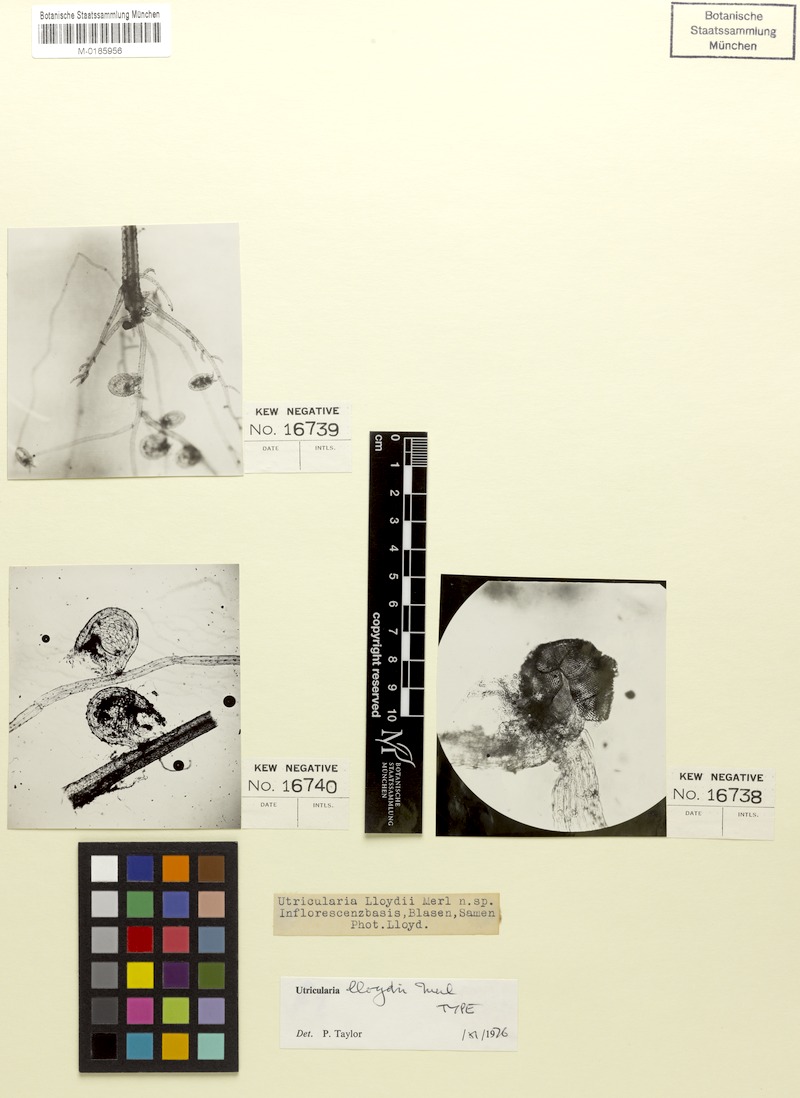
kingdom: Plantae
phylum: Tracheophyta
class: Magnoliopsida
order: Lamiales
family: Lentibulariaceae
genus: Utricularia
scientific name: Utricularia lloydii
